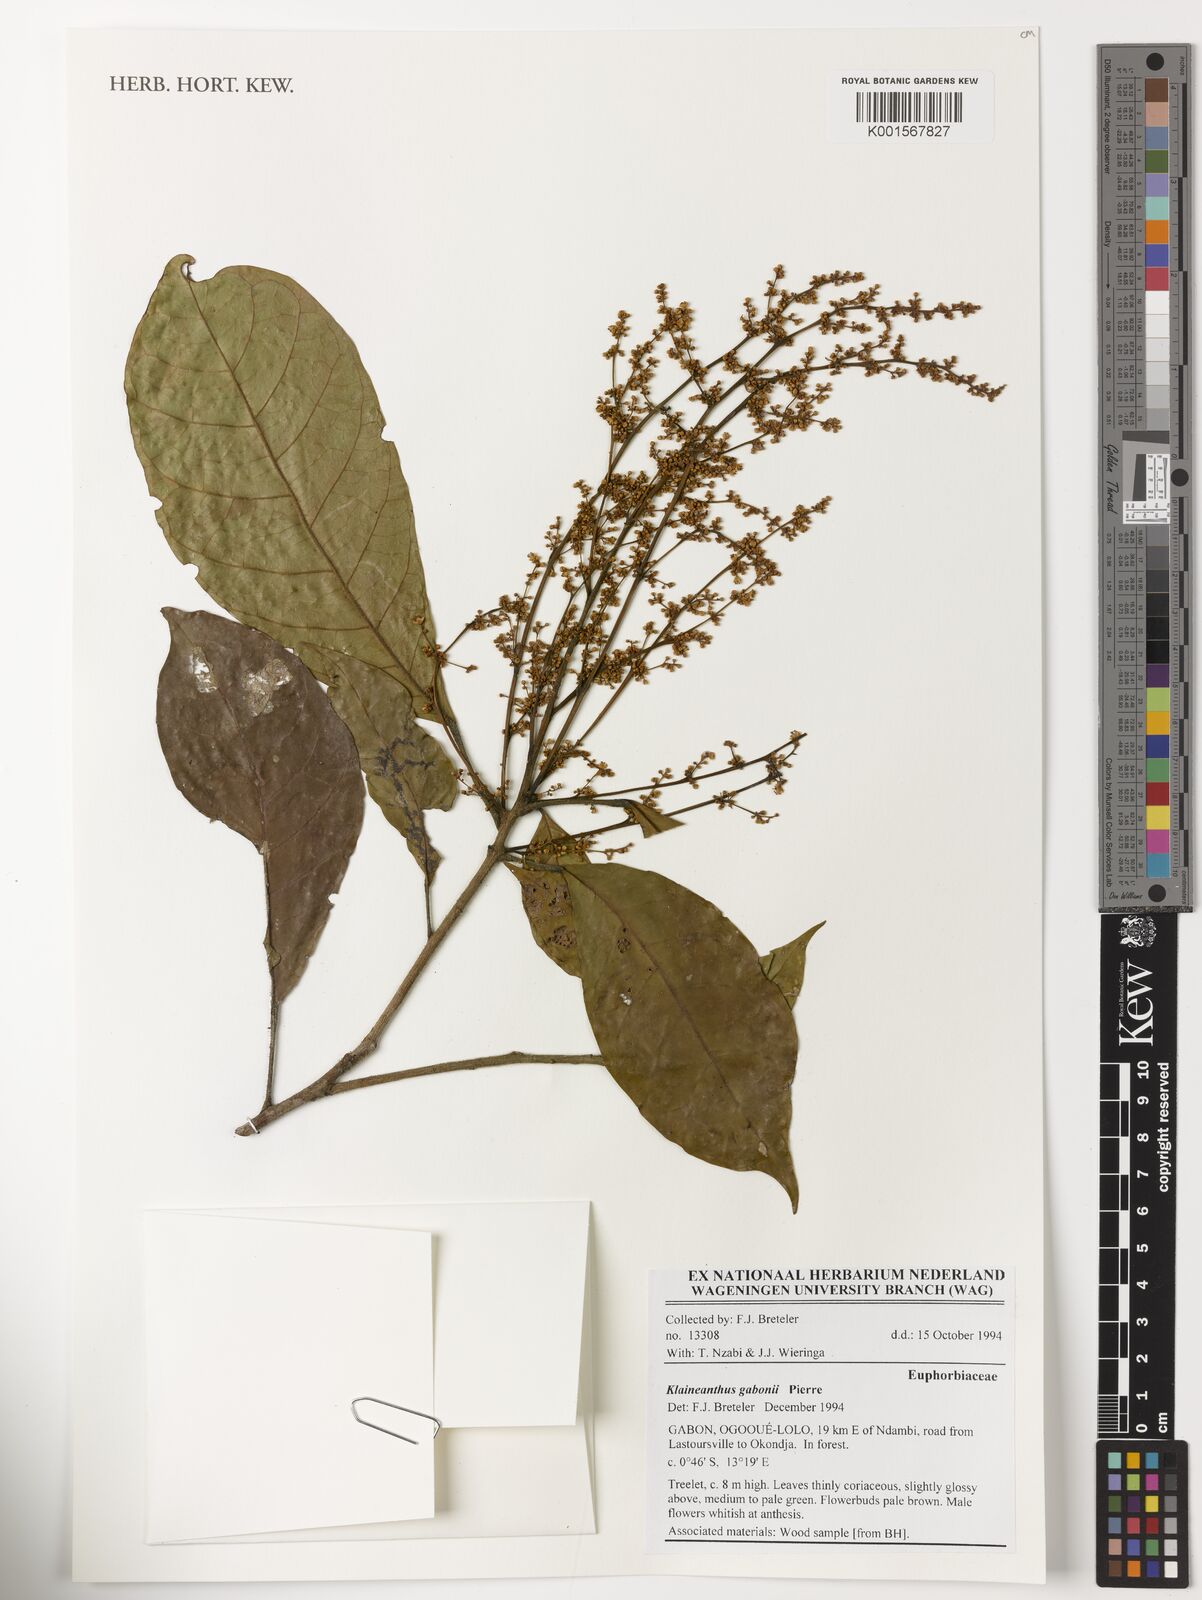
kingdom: Plantae
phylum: Tracheophyta
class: Magnoliopsida
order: Malpighiales
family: Euphorbiaceae
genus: Klaineanthus
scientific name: Klaineanthus gaboniae
